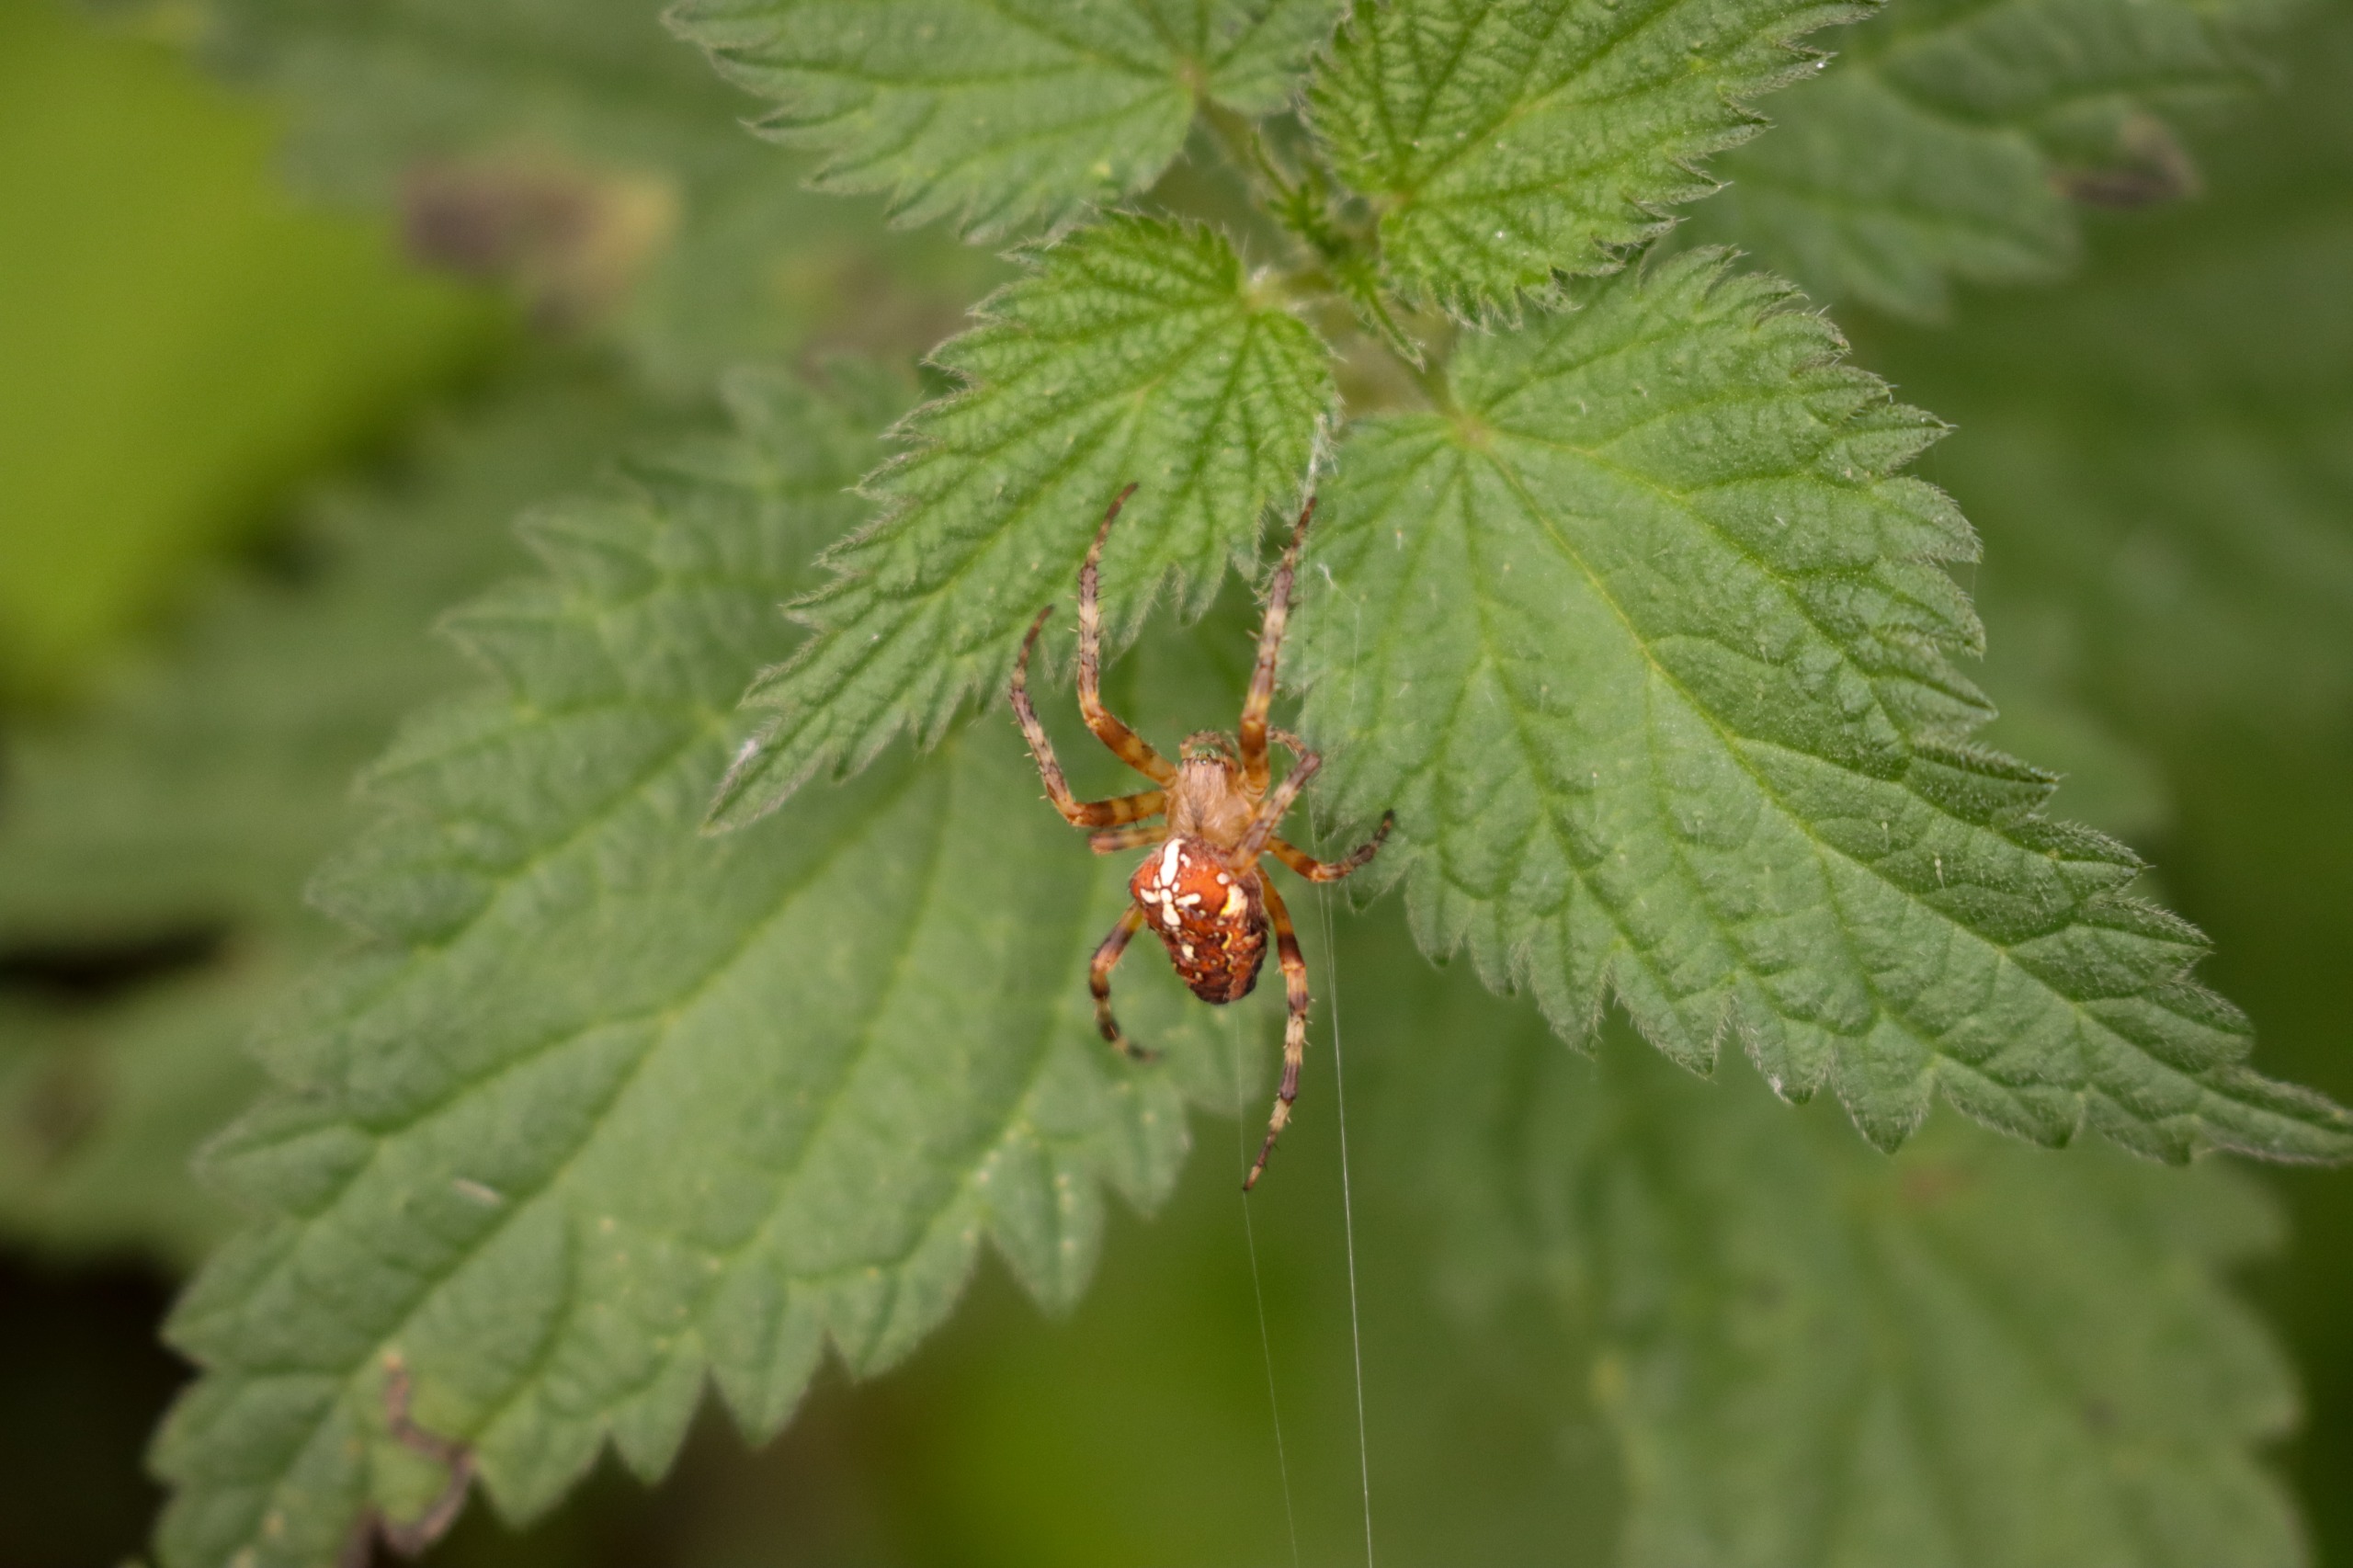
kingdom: Animalia
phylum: Arthropoda
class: Arachnida
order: Araneae
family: Araneidae
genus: Araneus
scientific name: Araneus diadematus
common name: Korsedderkop
